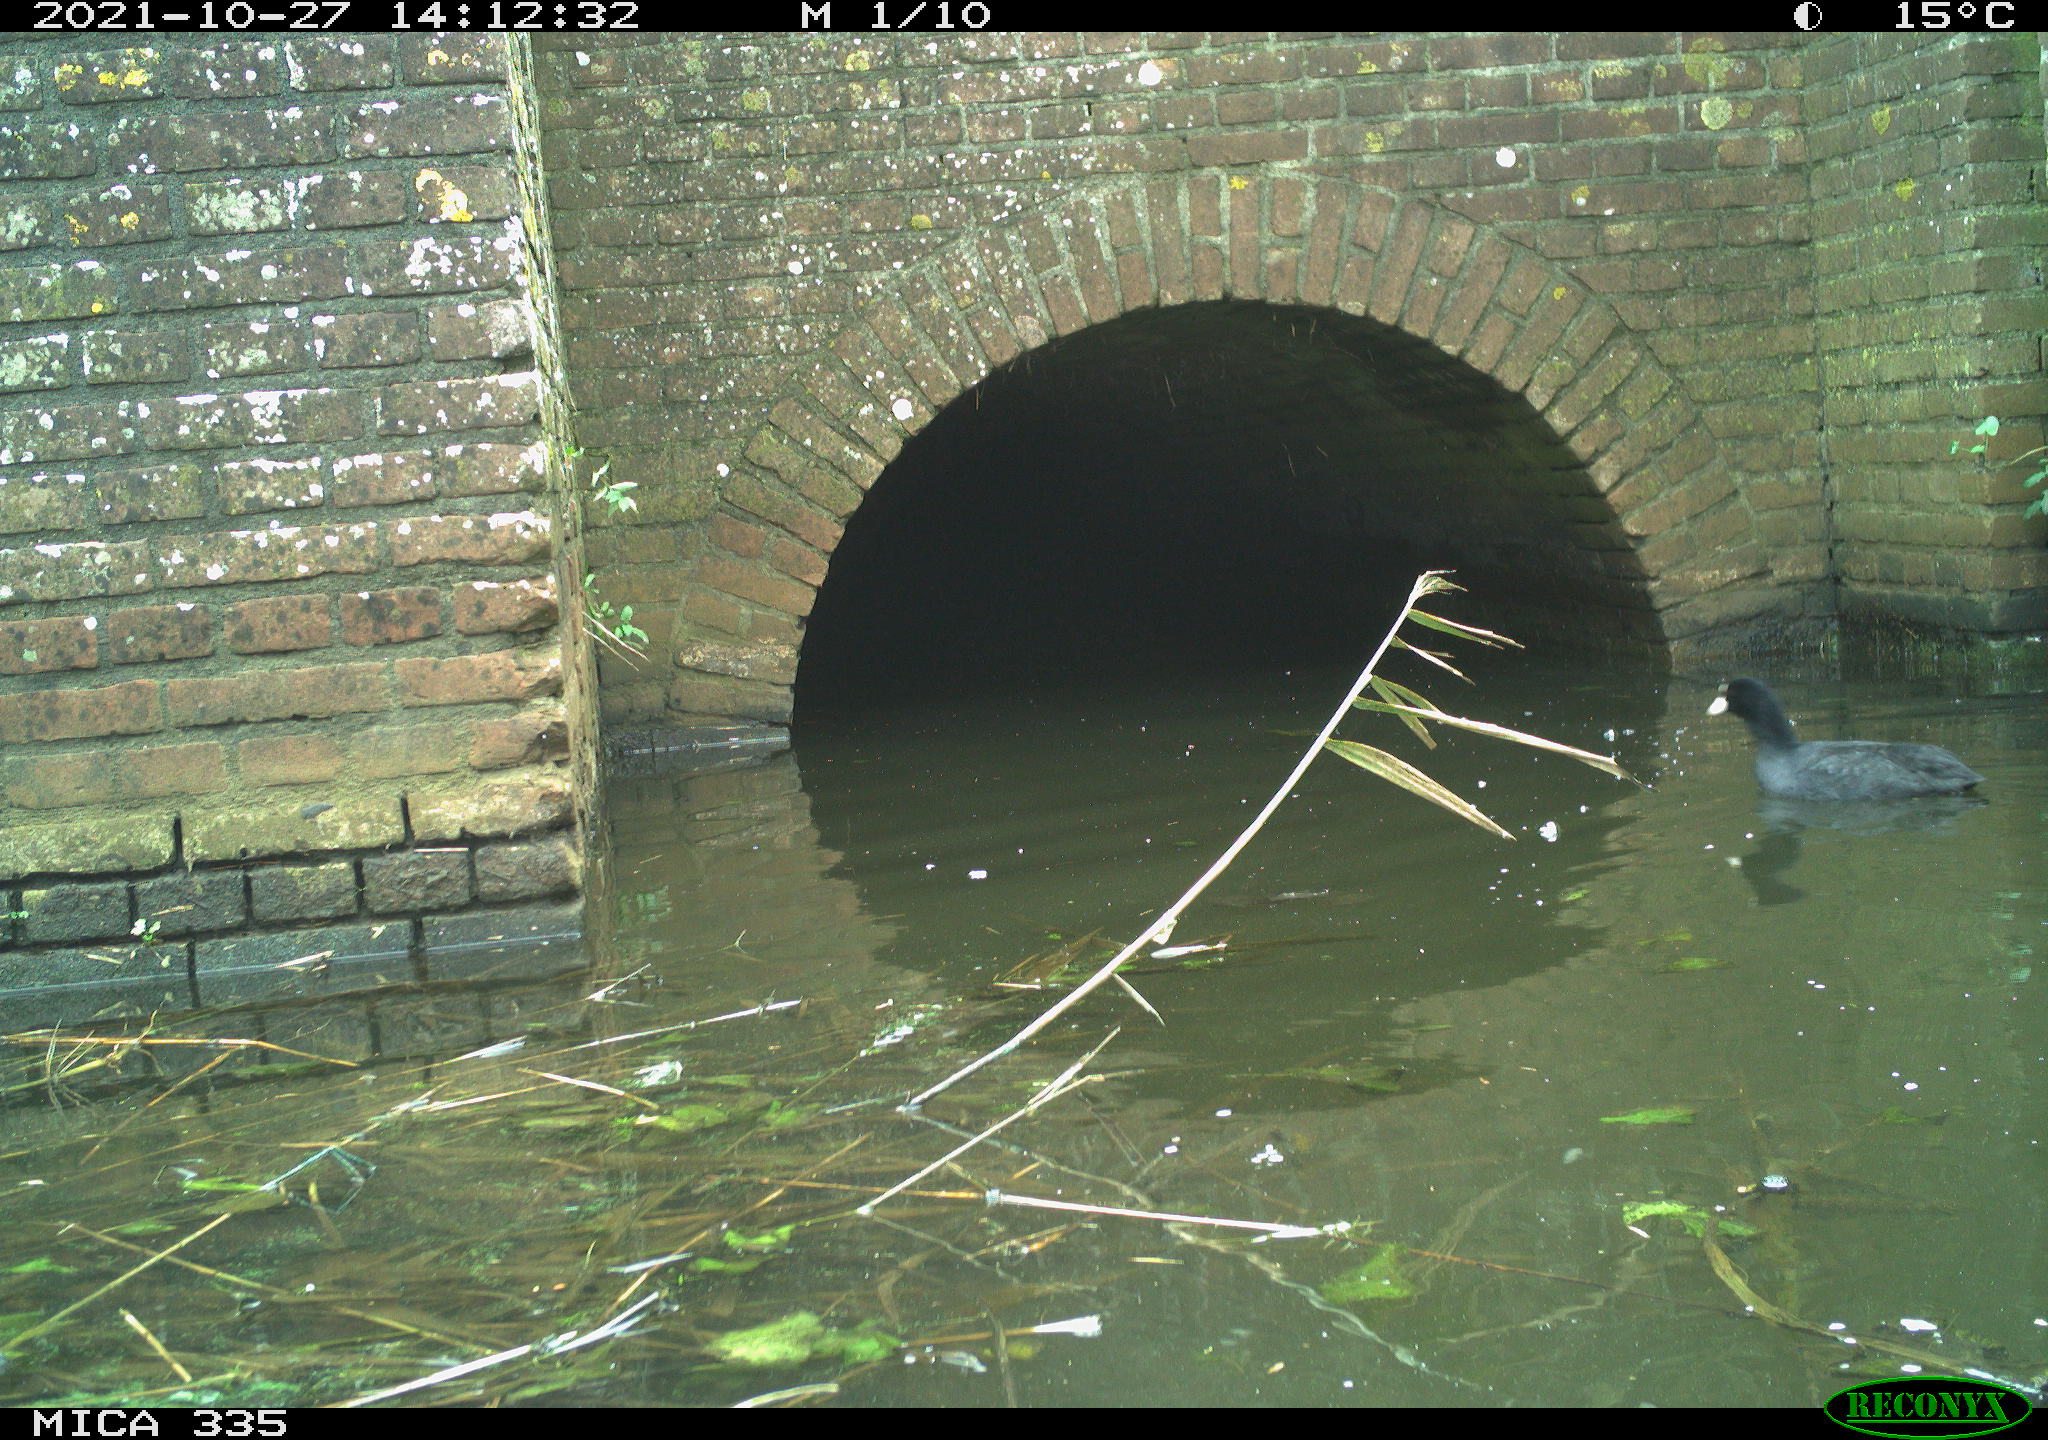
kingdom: Animalia
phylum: Chordata
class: Aves
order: Gruiformes
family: Rallidae
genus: Fulica
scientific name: Fulica atra
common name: Eurasian coot
